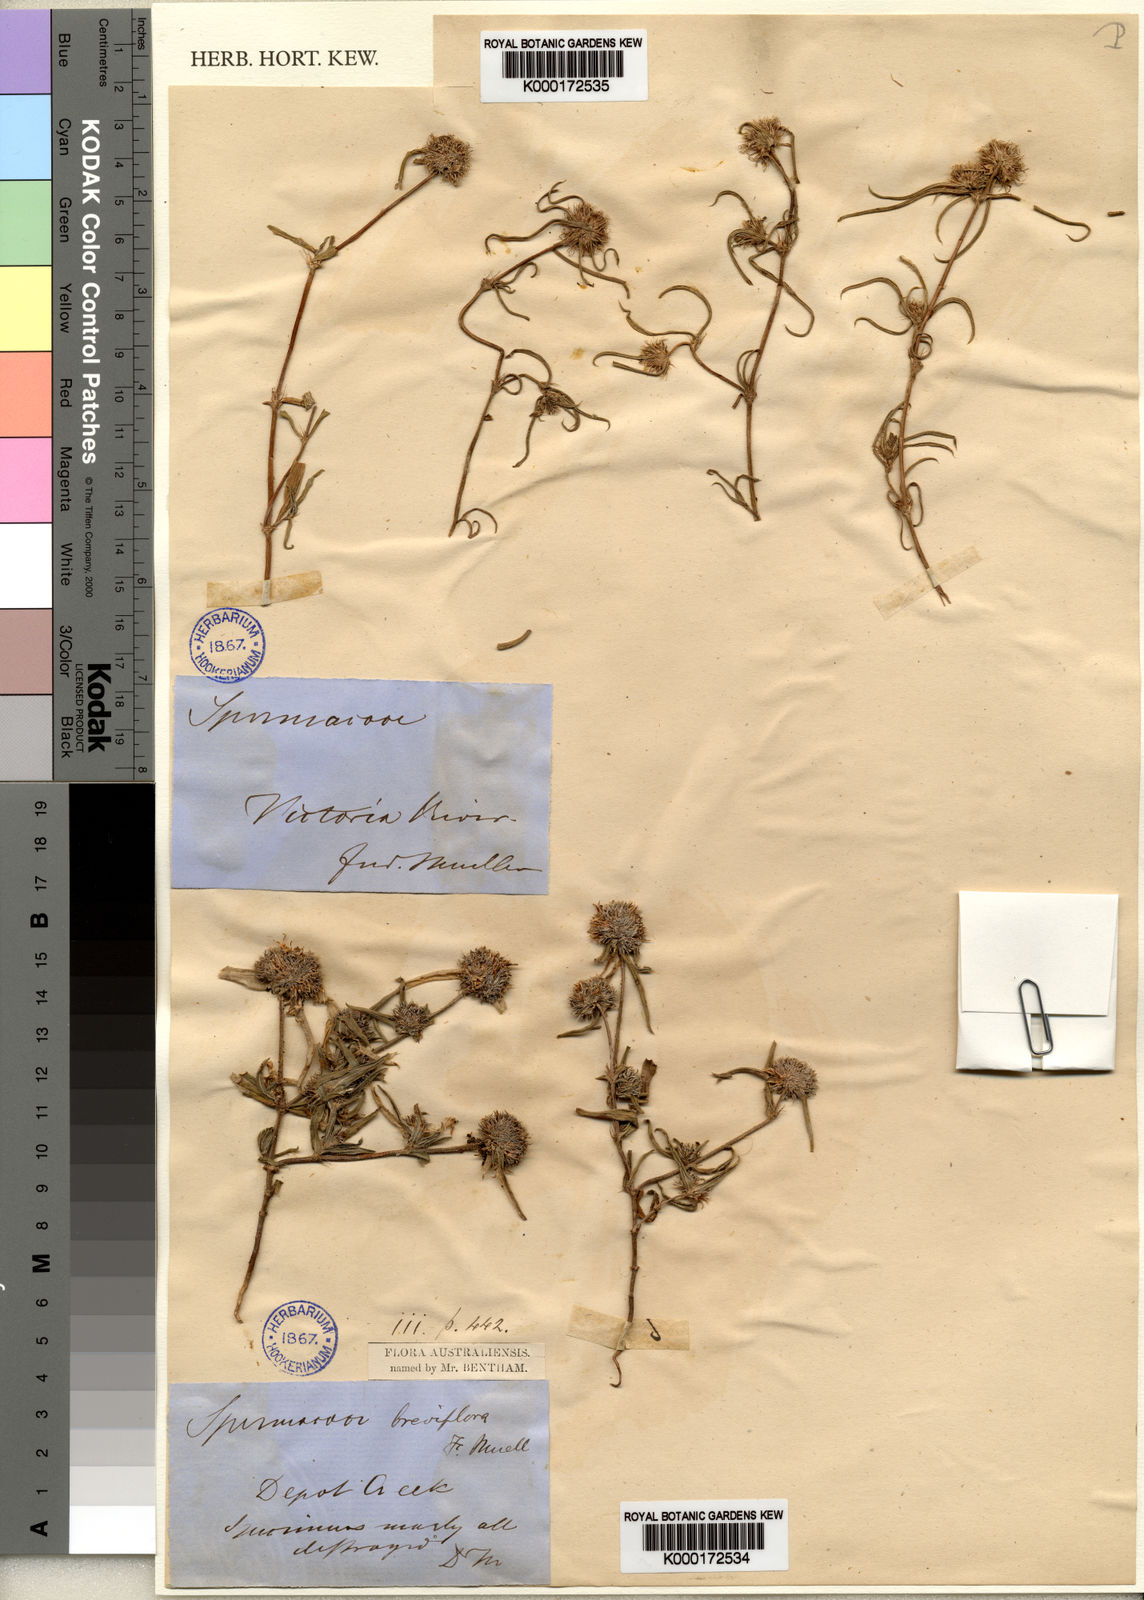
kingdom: Plantae
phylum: Tracheophyta
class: Magnoliopsida
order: Gentianales
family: Rubiaceae
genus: Spermacoce
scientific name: Spermacoce breviflora
